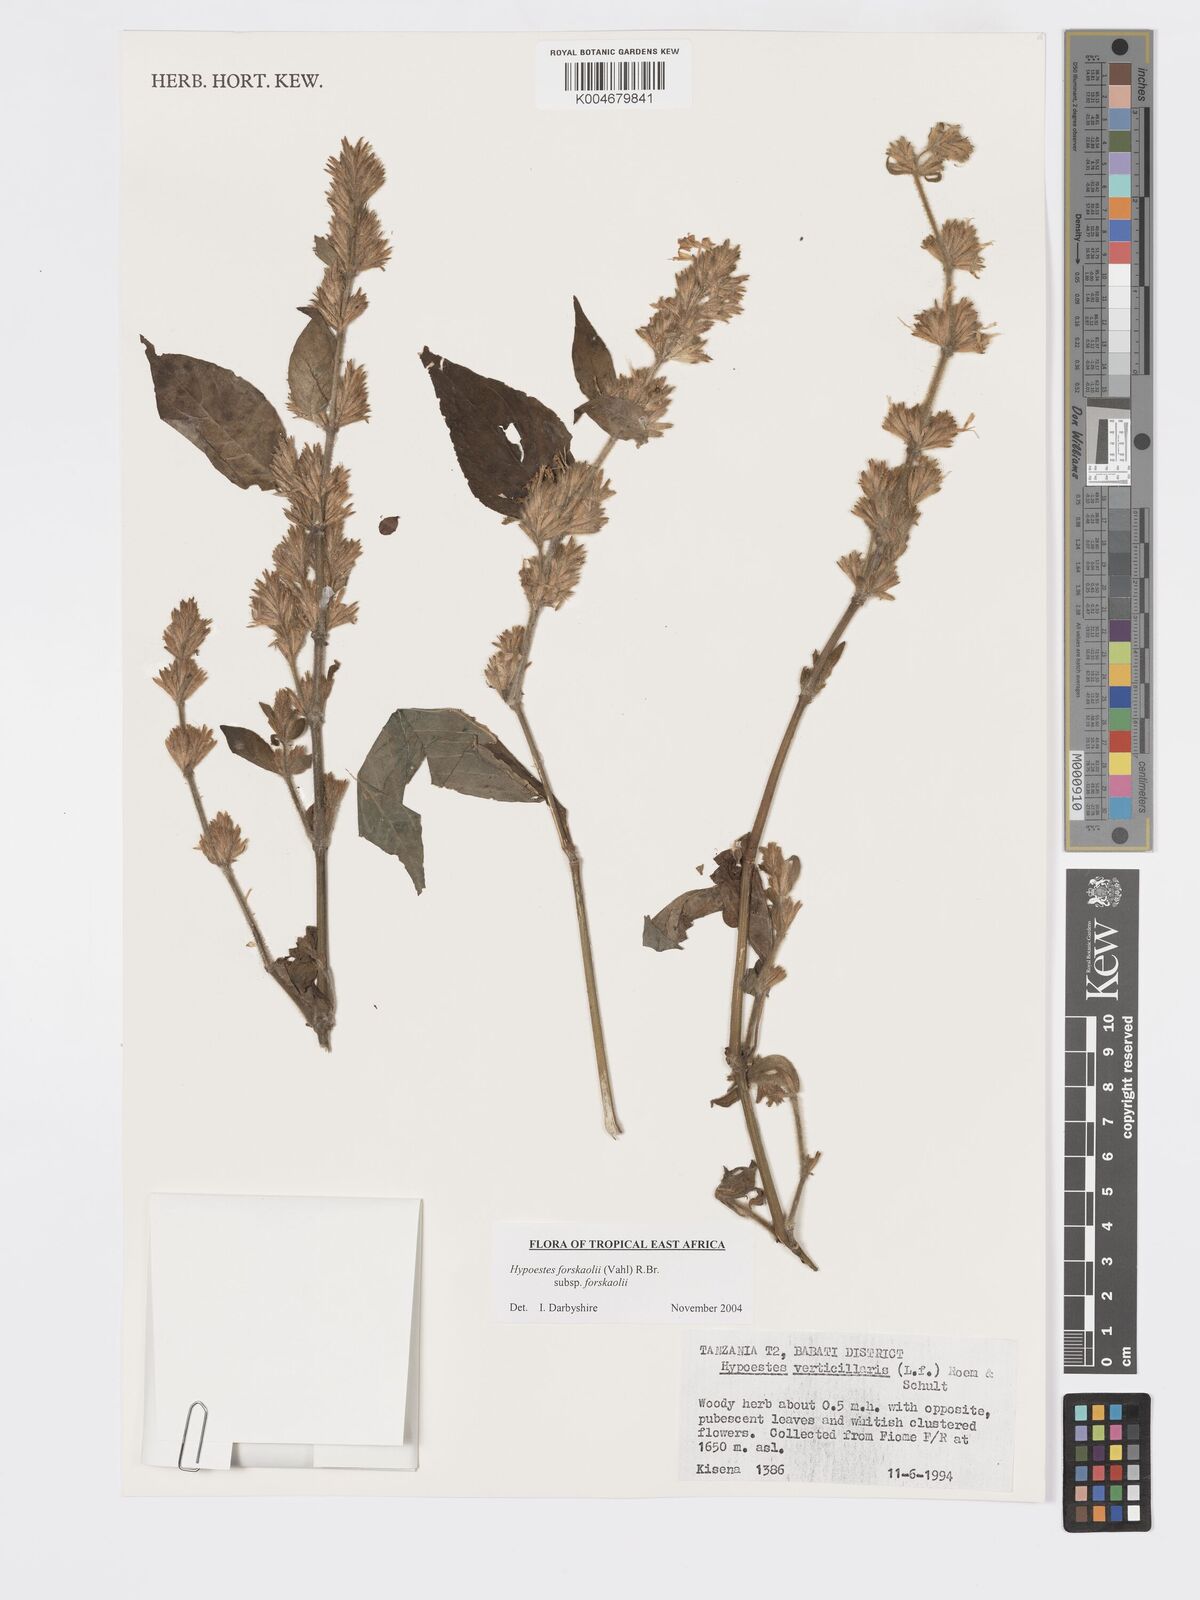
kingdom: Plantae
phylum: Tracheophyta
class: Magnoliopsida
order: Lamiales
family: Acanthaceae
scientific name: Acanthaceae
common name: Acanthaceae
